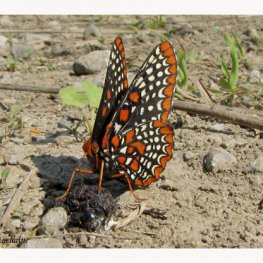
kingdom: Animalia
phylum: Arthropoda
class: Insecta
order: Lepidoptera
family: Nymphalidae
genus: Euphydryas
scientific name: Euphydryas phaeton
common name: Baltimore Checkerspot
